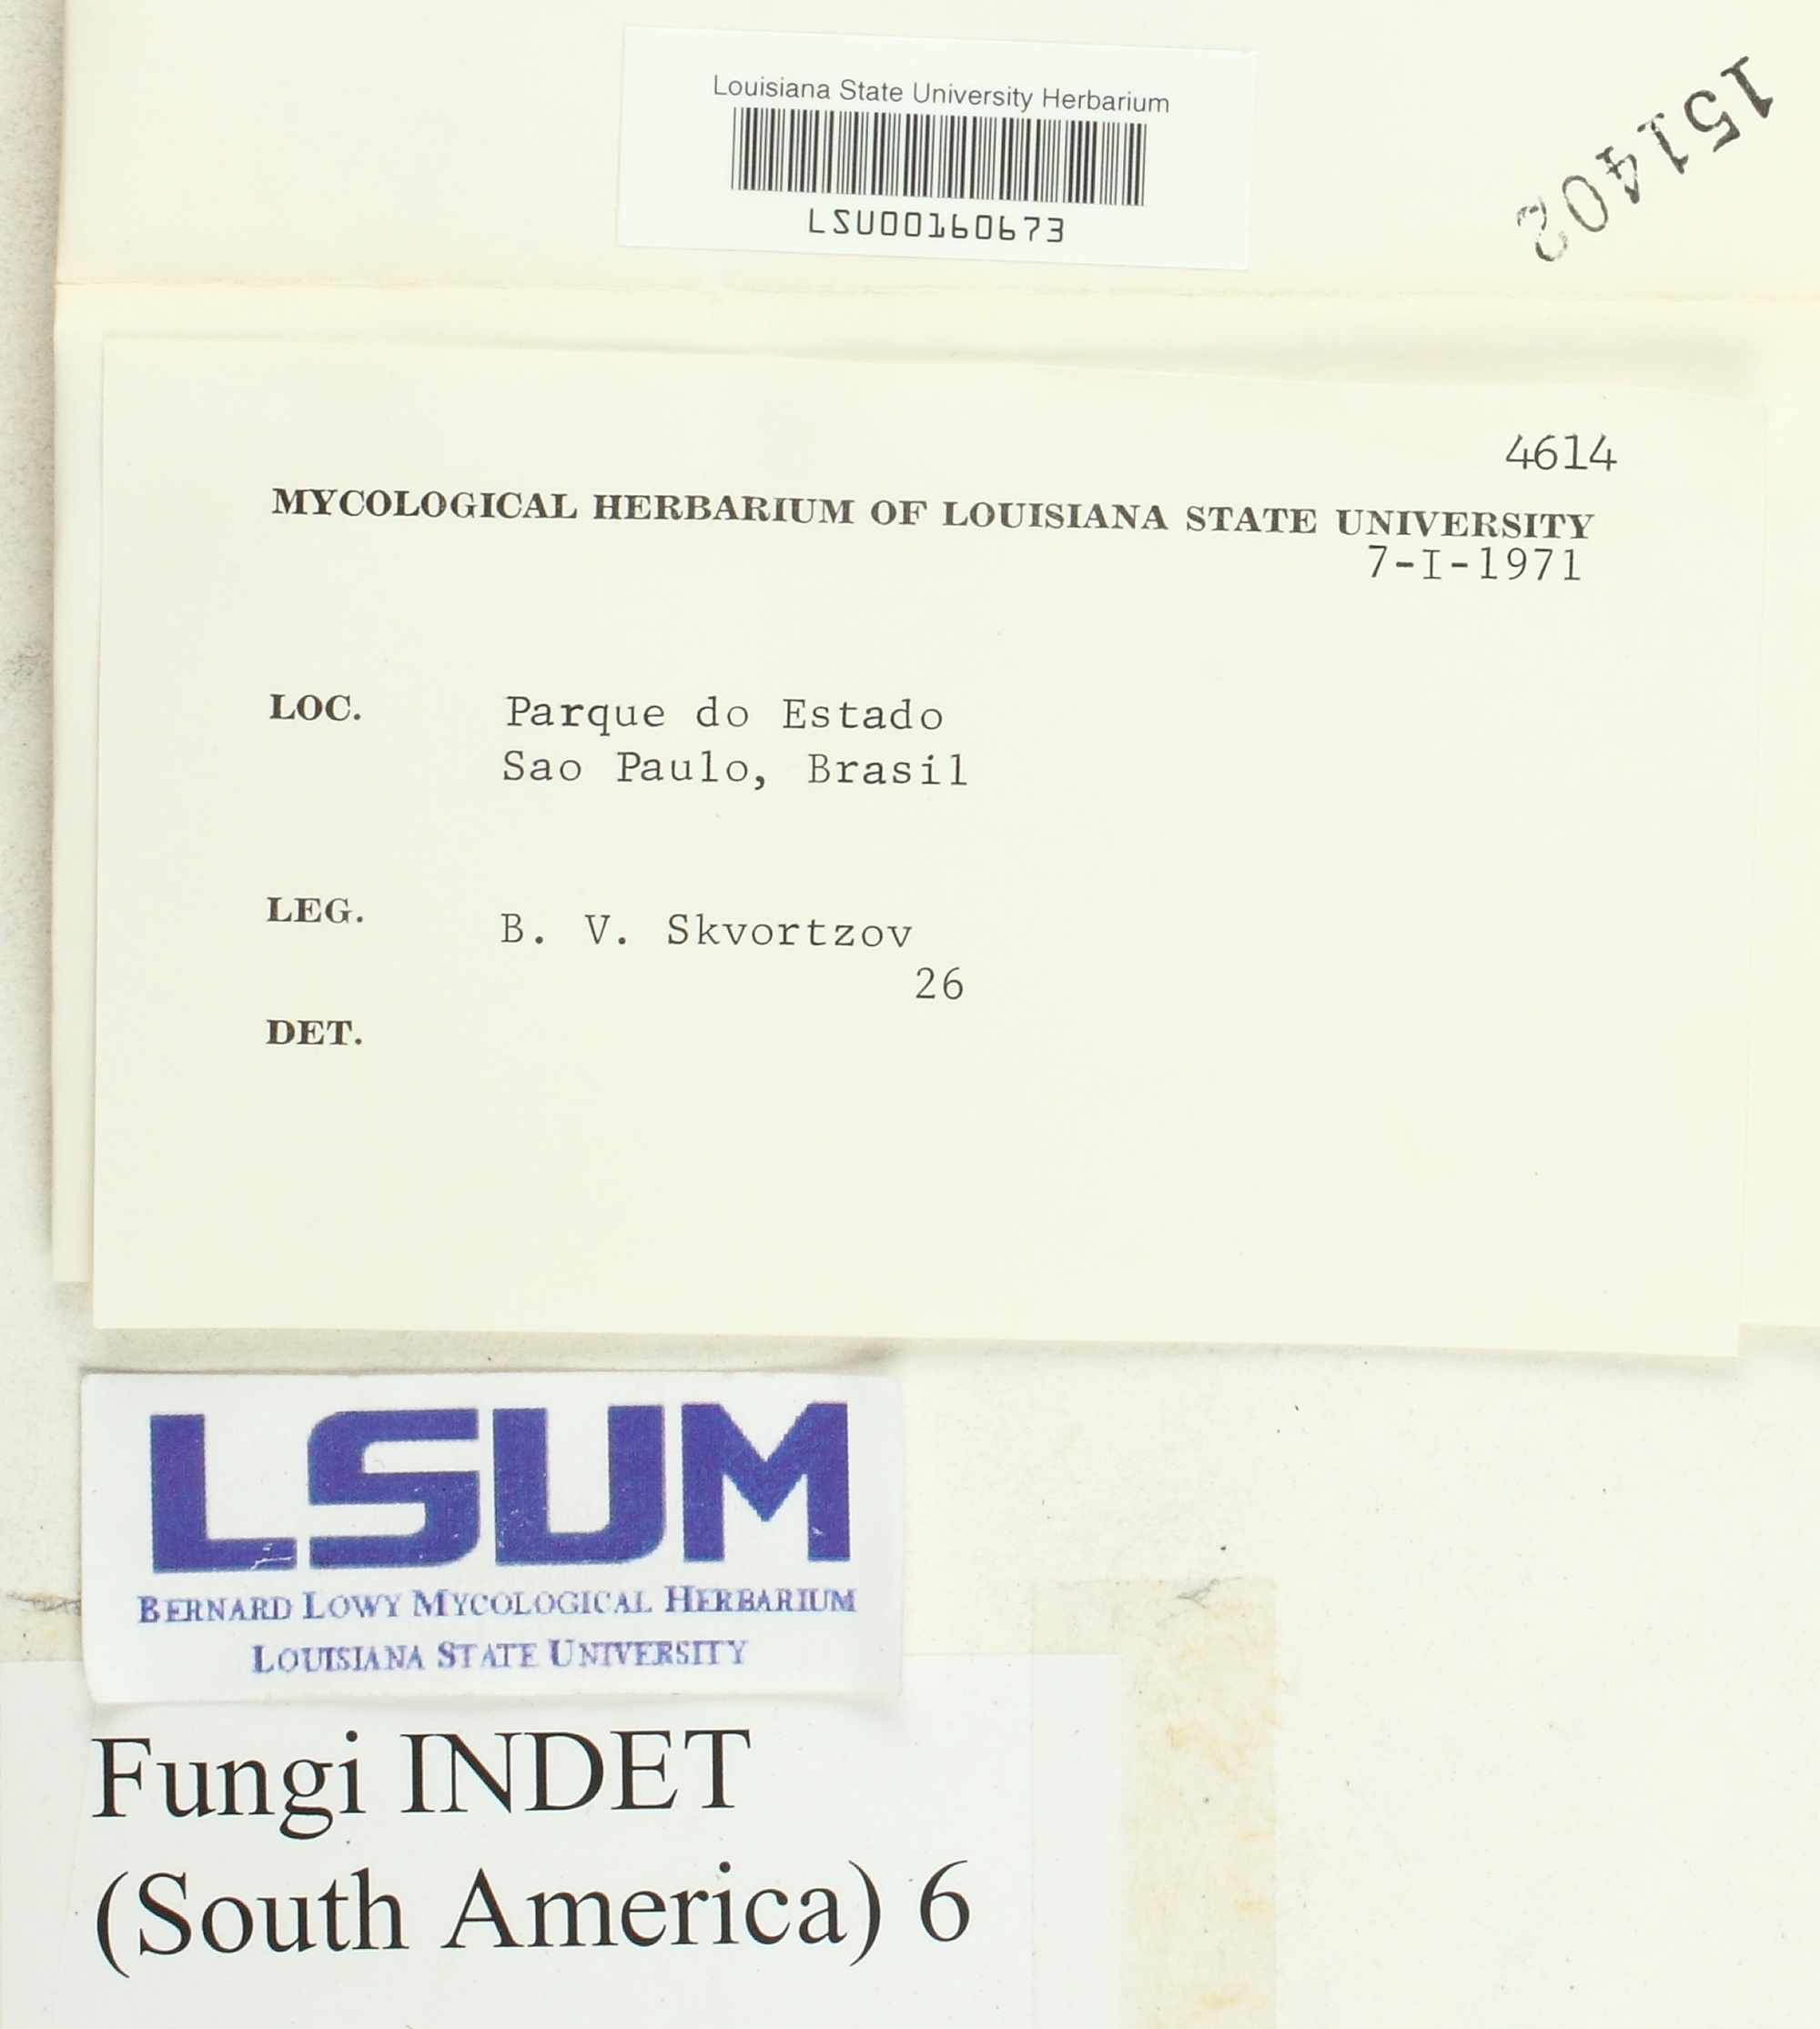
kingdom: Fungi
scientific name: Fungi
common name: Fungi
